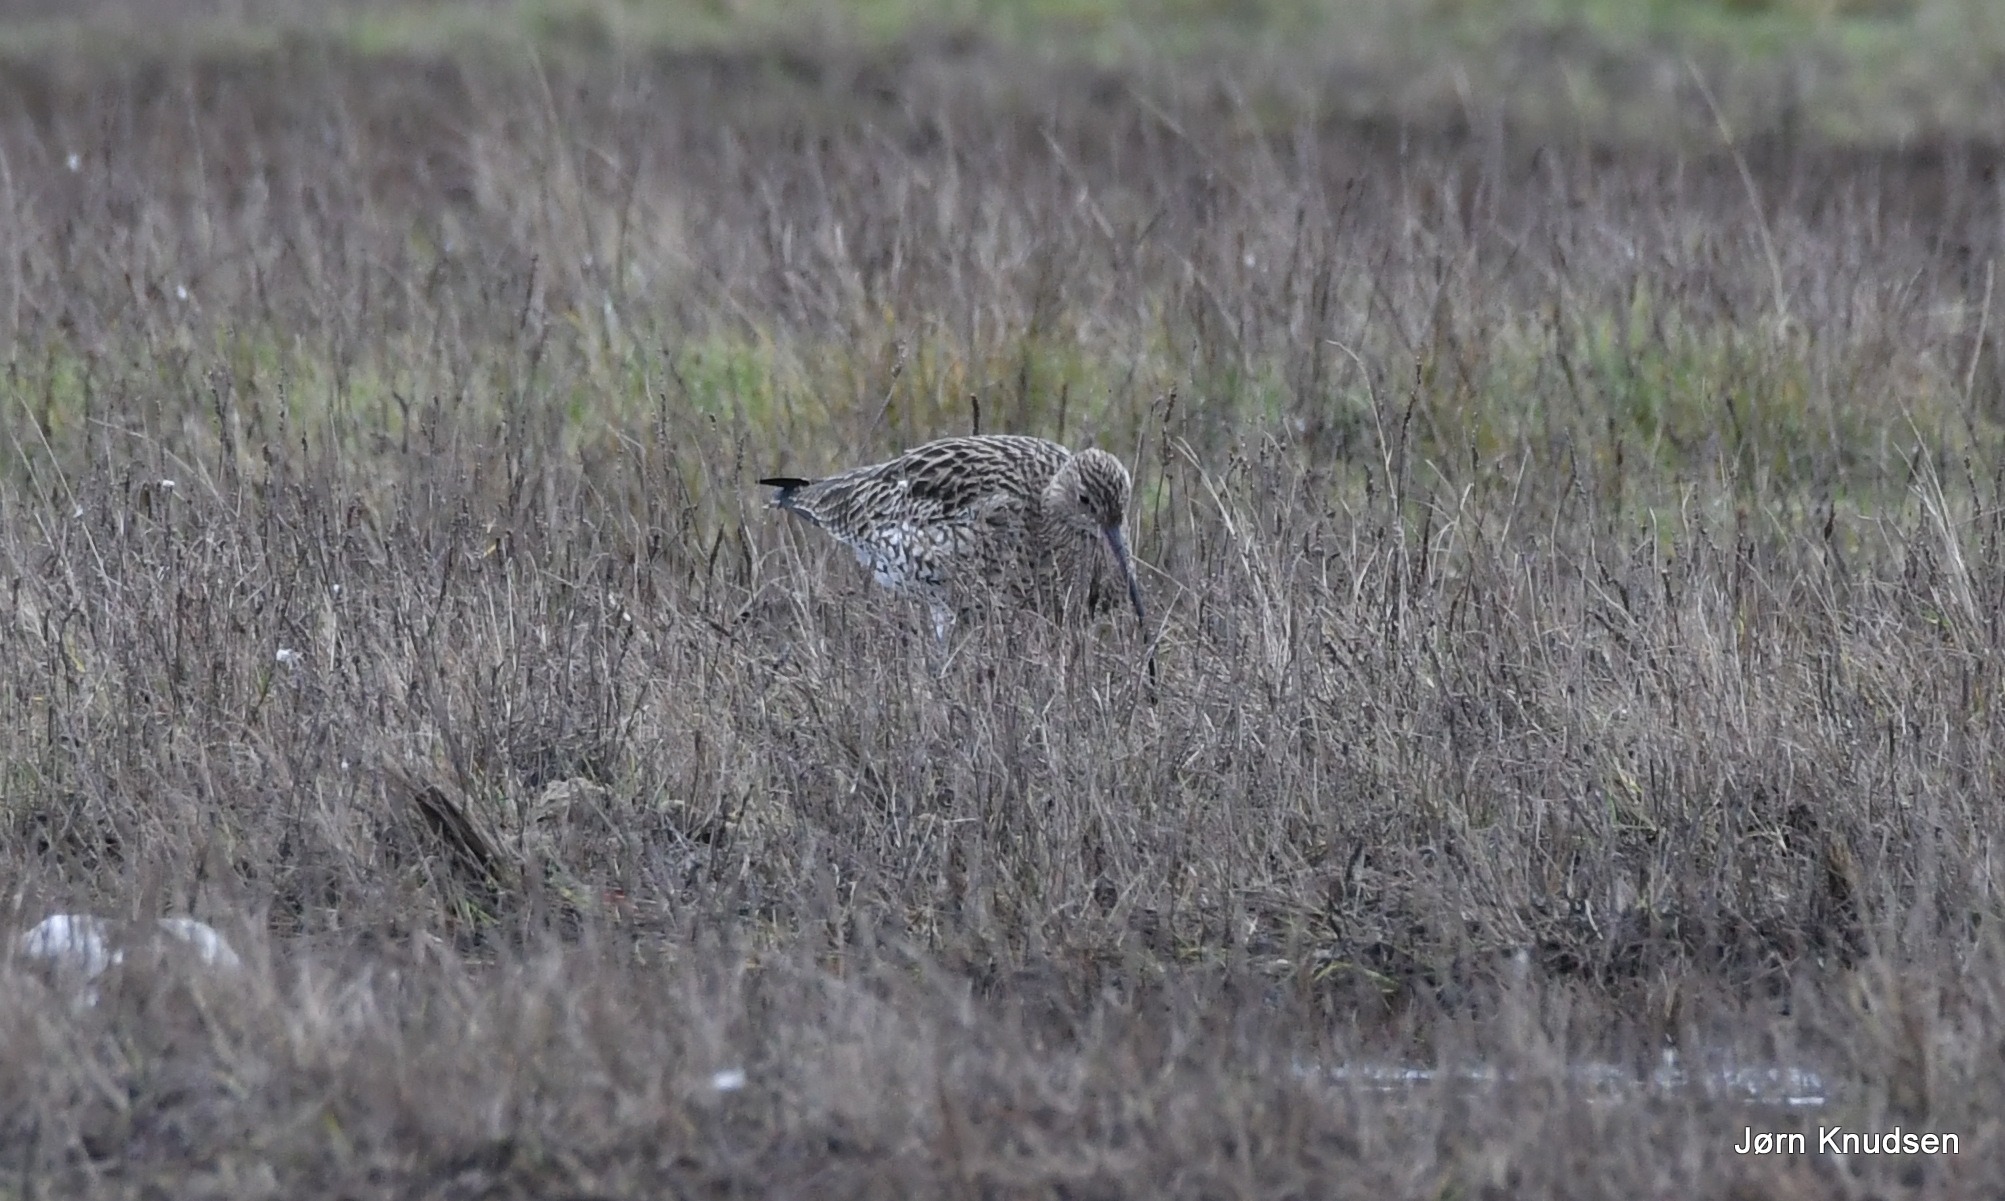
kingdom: Animalia
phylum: Chordata
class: Aves
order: Charadriiformes
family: Scolopacidae
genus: Numenius
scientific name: Numenius arquata
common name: Storspove
